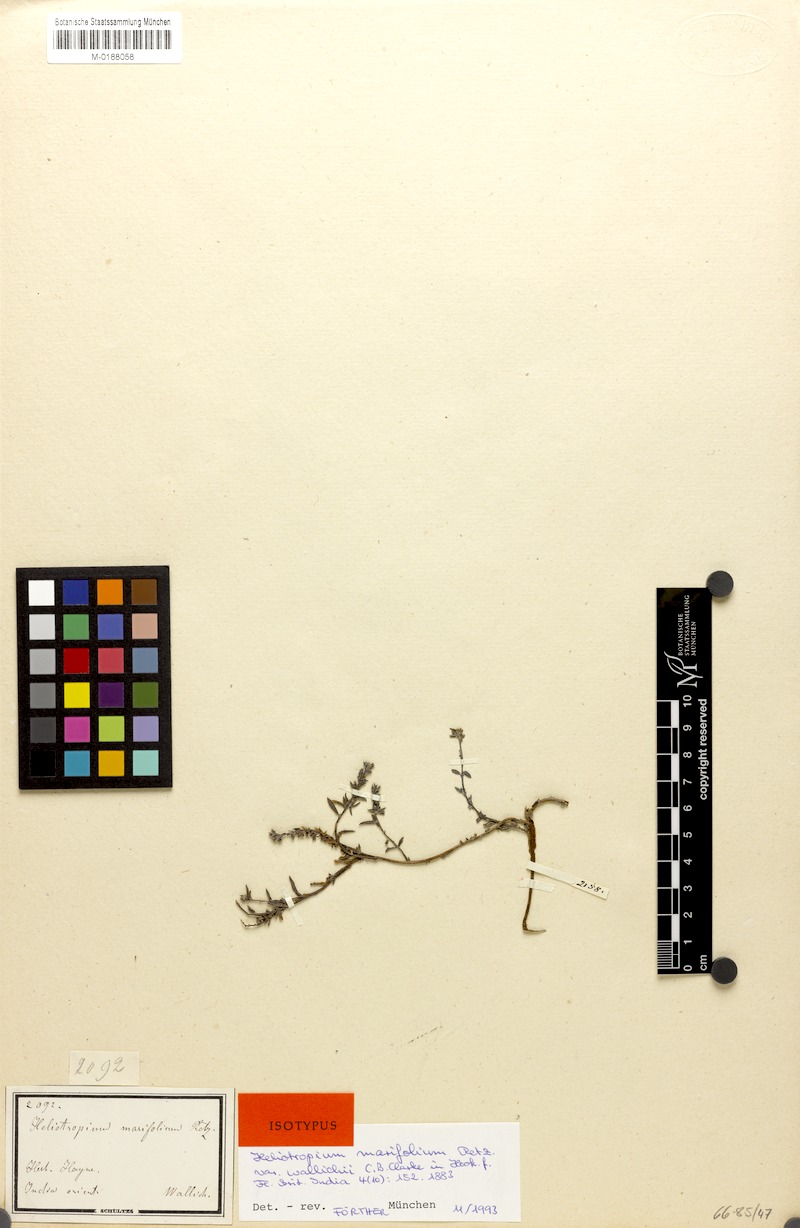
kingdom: Plantae
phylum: Tracheophyta
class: Magnoliopsida
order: Boraginales
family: Heliotropiaceae
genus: Euploca
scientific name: Euploca marifolia
